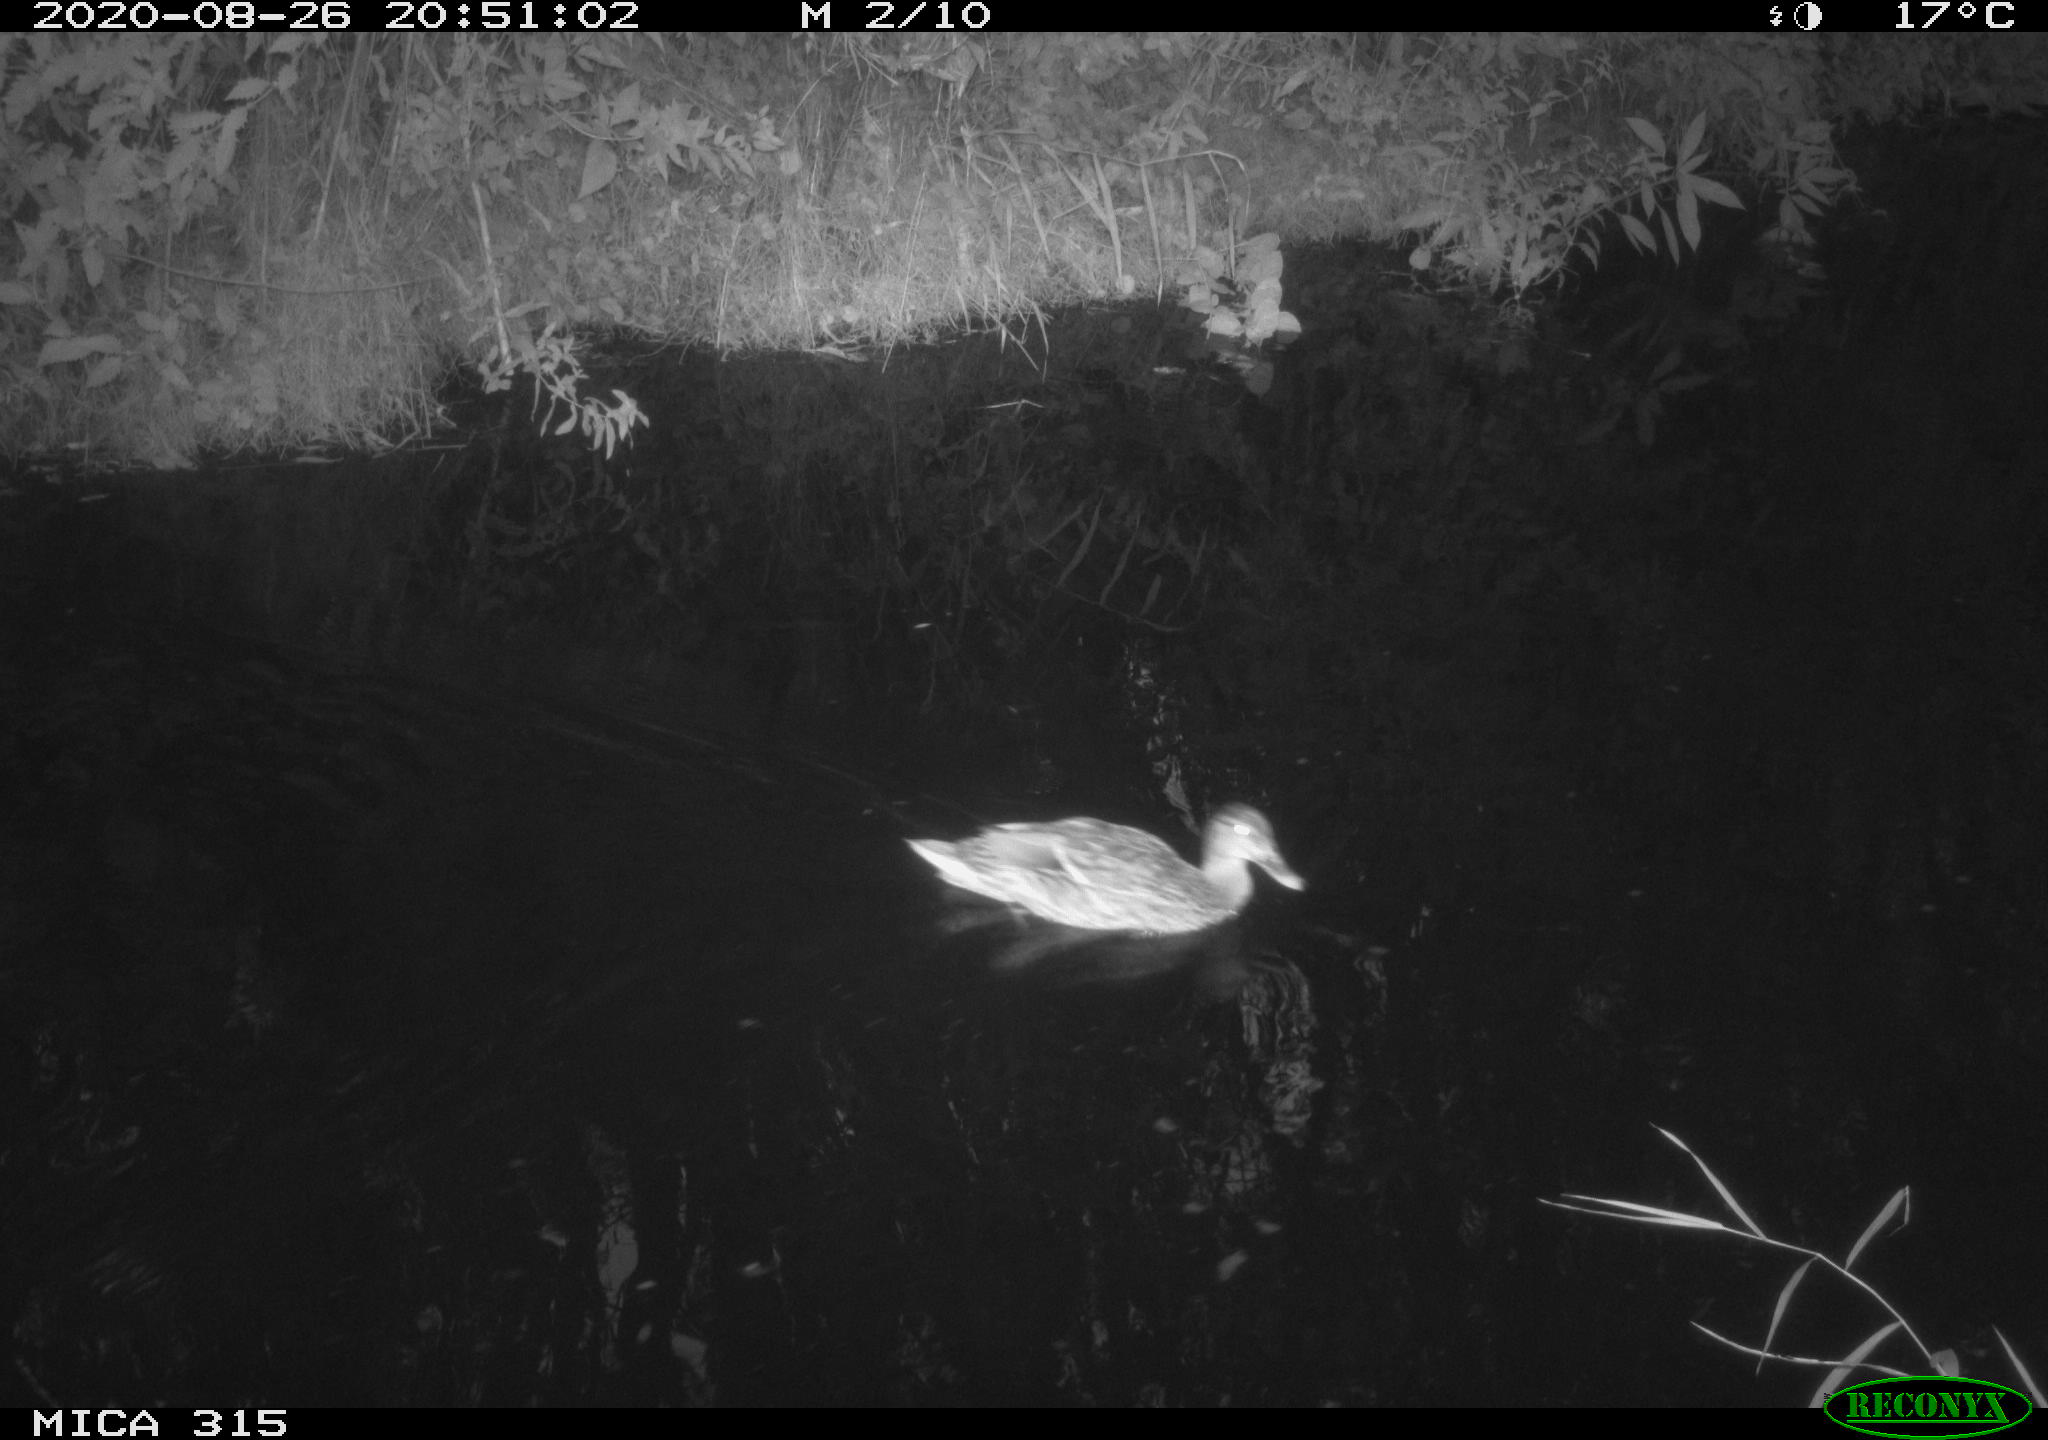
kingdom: Animalia
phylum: Chordata
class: Aves
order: Anseriformes
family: Anatidae
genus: Anas
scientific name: Anas platyrhynchos
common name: Mallard
